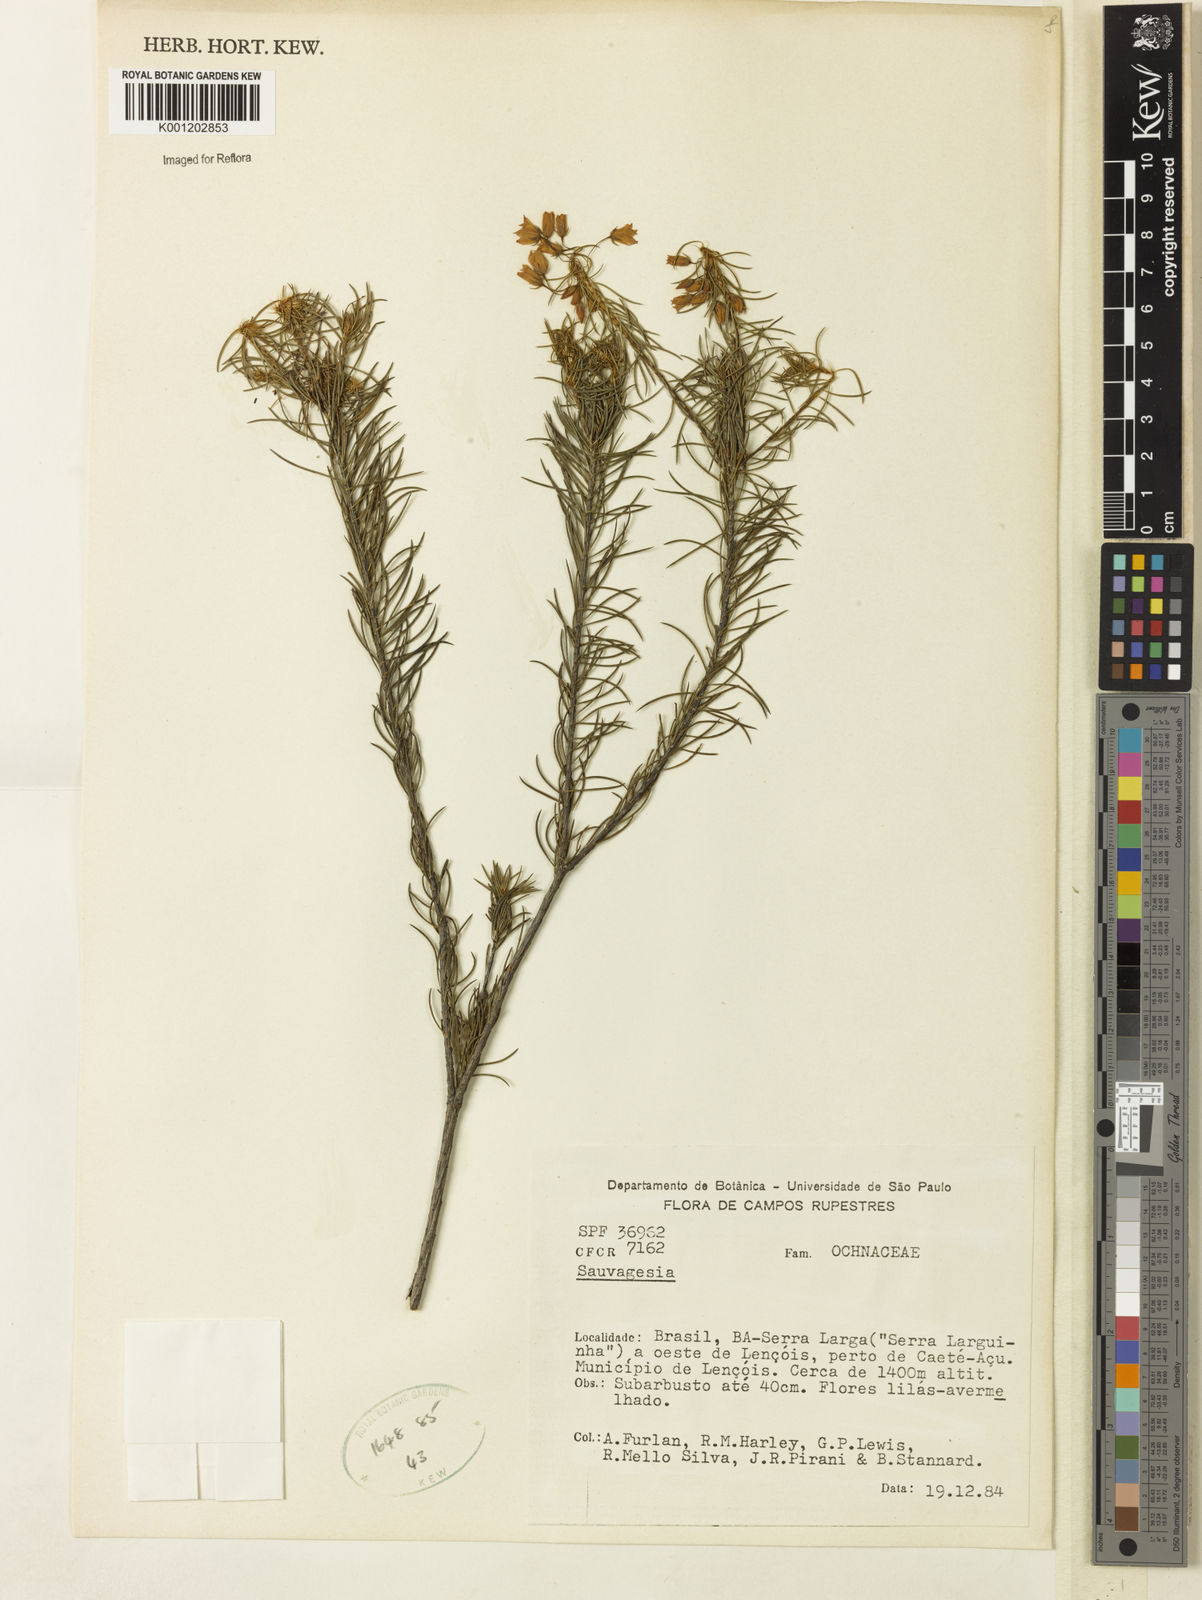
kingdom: Plantae
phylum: Tracheophyta
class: Magnoliopsida
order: Malpighiales
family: Ochnaceae
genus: Sauvagesia
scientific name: Sauvagesia
